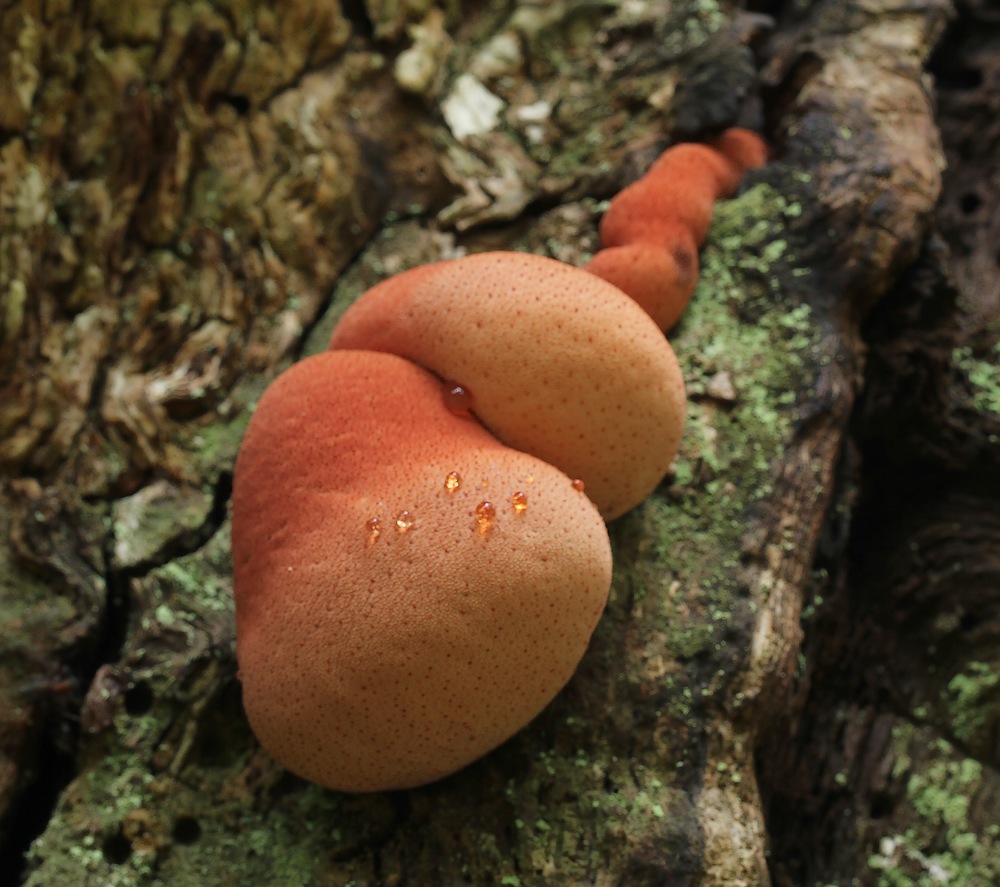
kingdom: Fungi
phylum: Basidiomycota
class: Agaricomycetes
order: Agaricales
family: Fistulinaceae
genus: Fistulina
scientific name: Fistulina hepatica
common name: oksetunge
